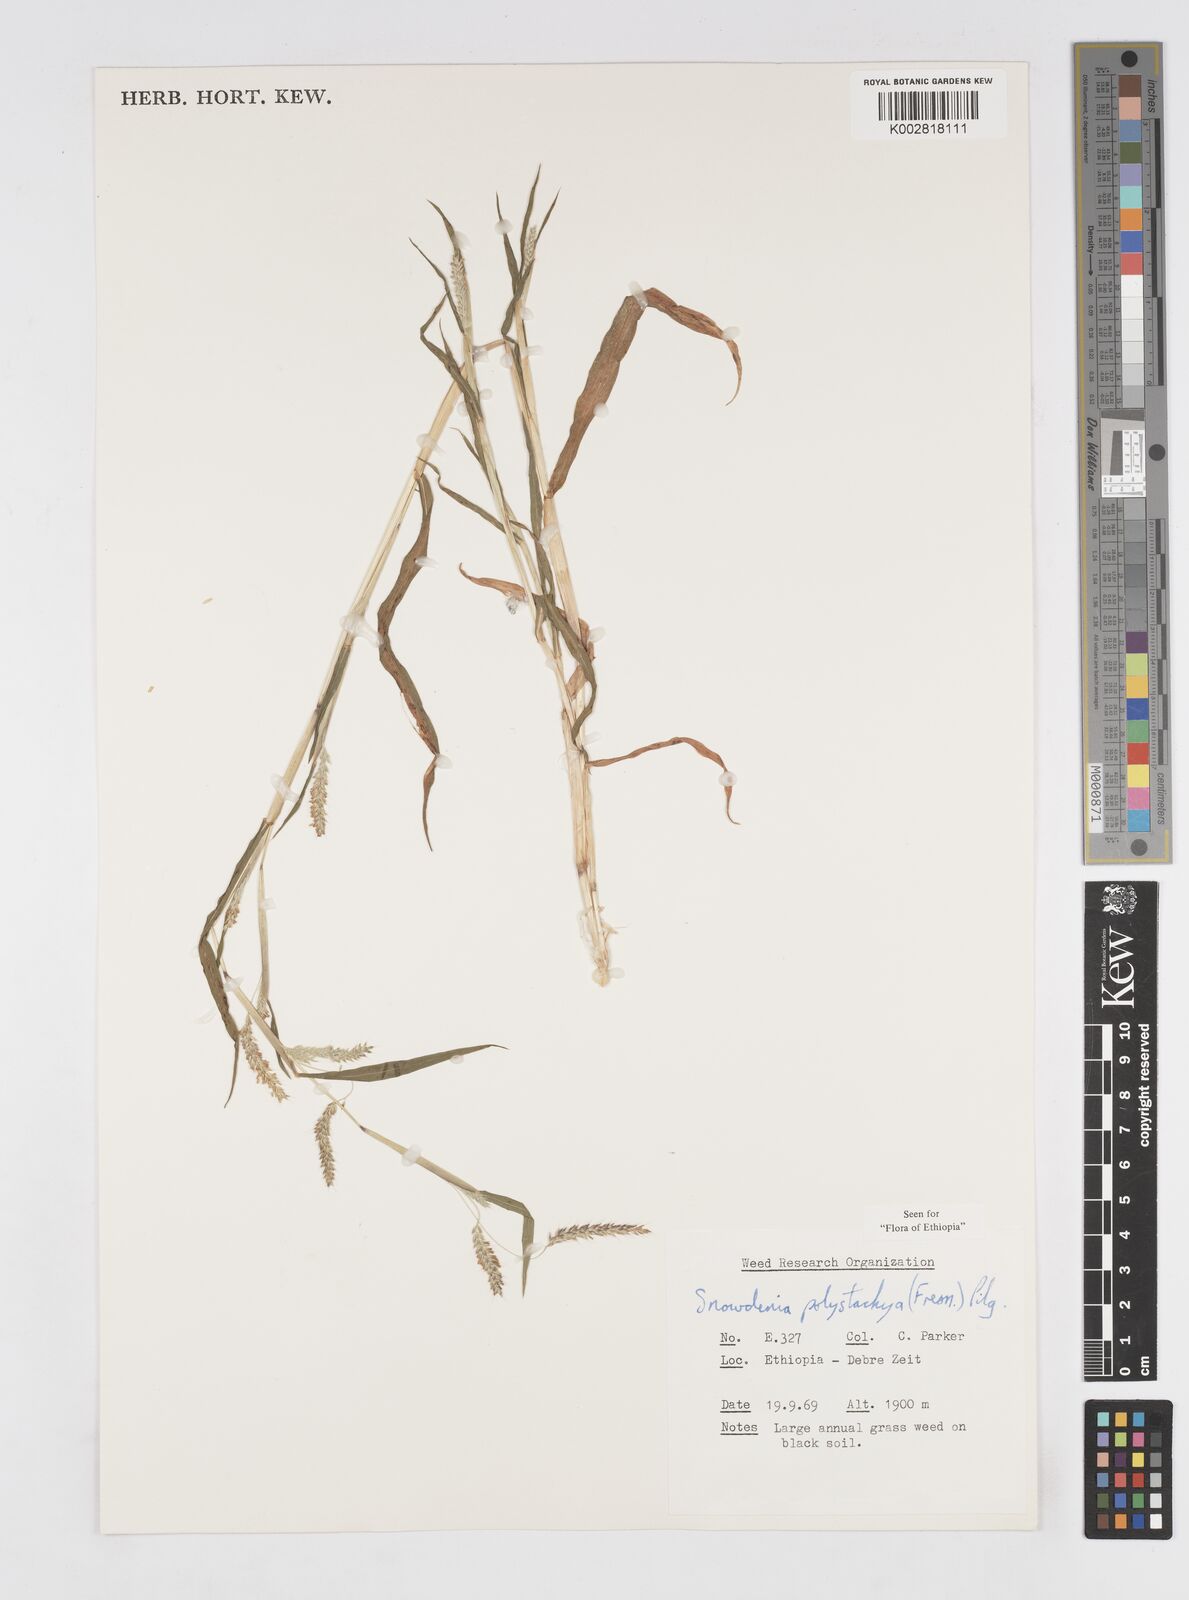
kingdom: Plantae
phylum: Tracheophyta
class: Liliopsida
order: Poales
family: Poaceae
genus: Snowdenia
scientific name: Snowdenia polystachya
